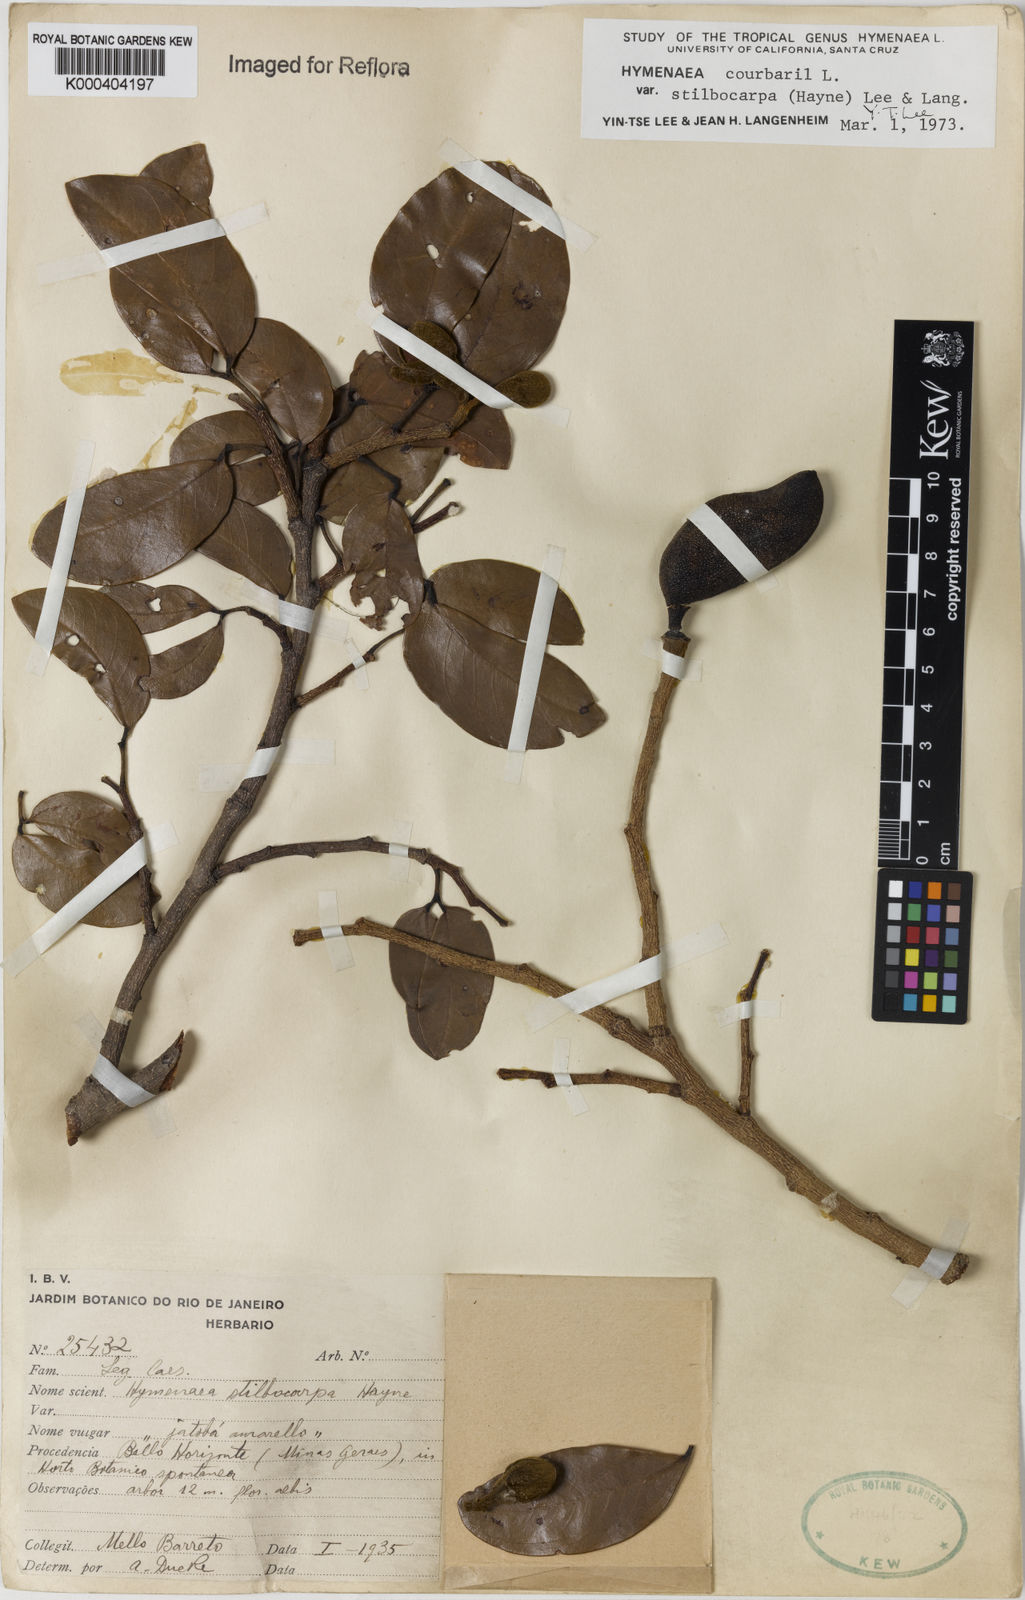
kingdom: Plantae
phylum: Tracheophyta
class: Magnoliopsida
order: Fabales
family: Fabaceae
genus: Hymenaea
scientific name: Hymenaea courbaril
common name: Brazilian copal
